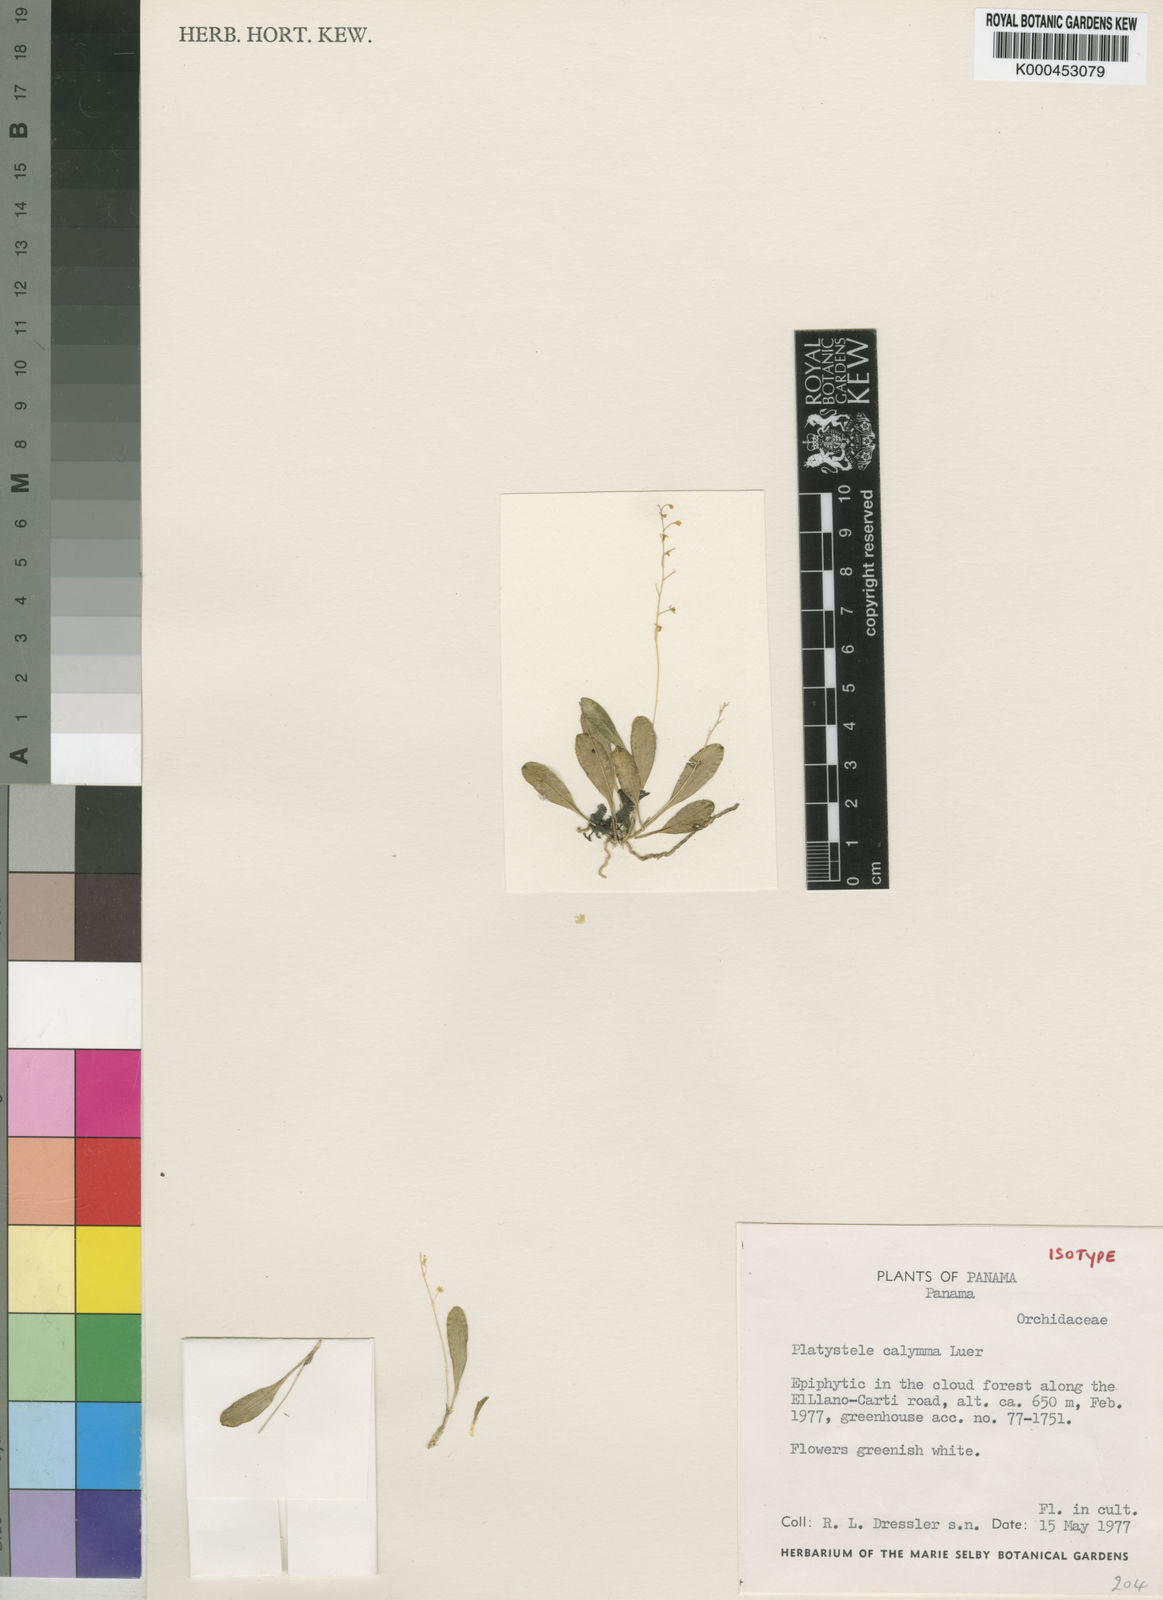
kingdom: Plantae
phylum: Tracheophyta
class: Liliopsida
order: Asparagales
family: Orchidaceae
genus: Platystele
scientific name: Platystele calymma
